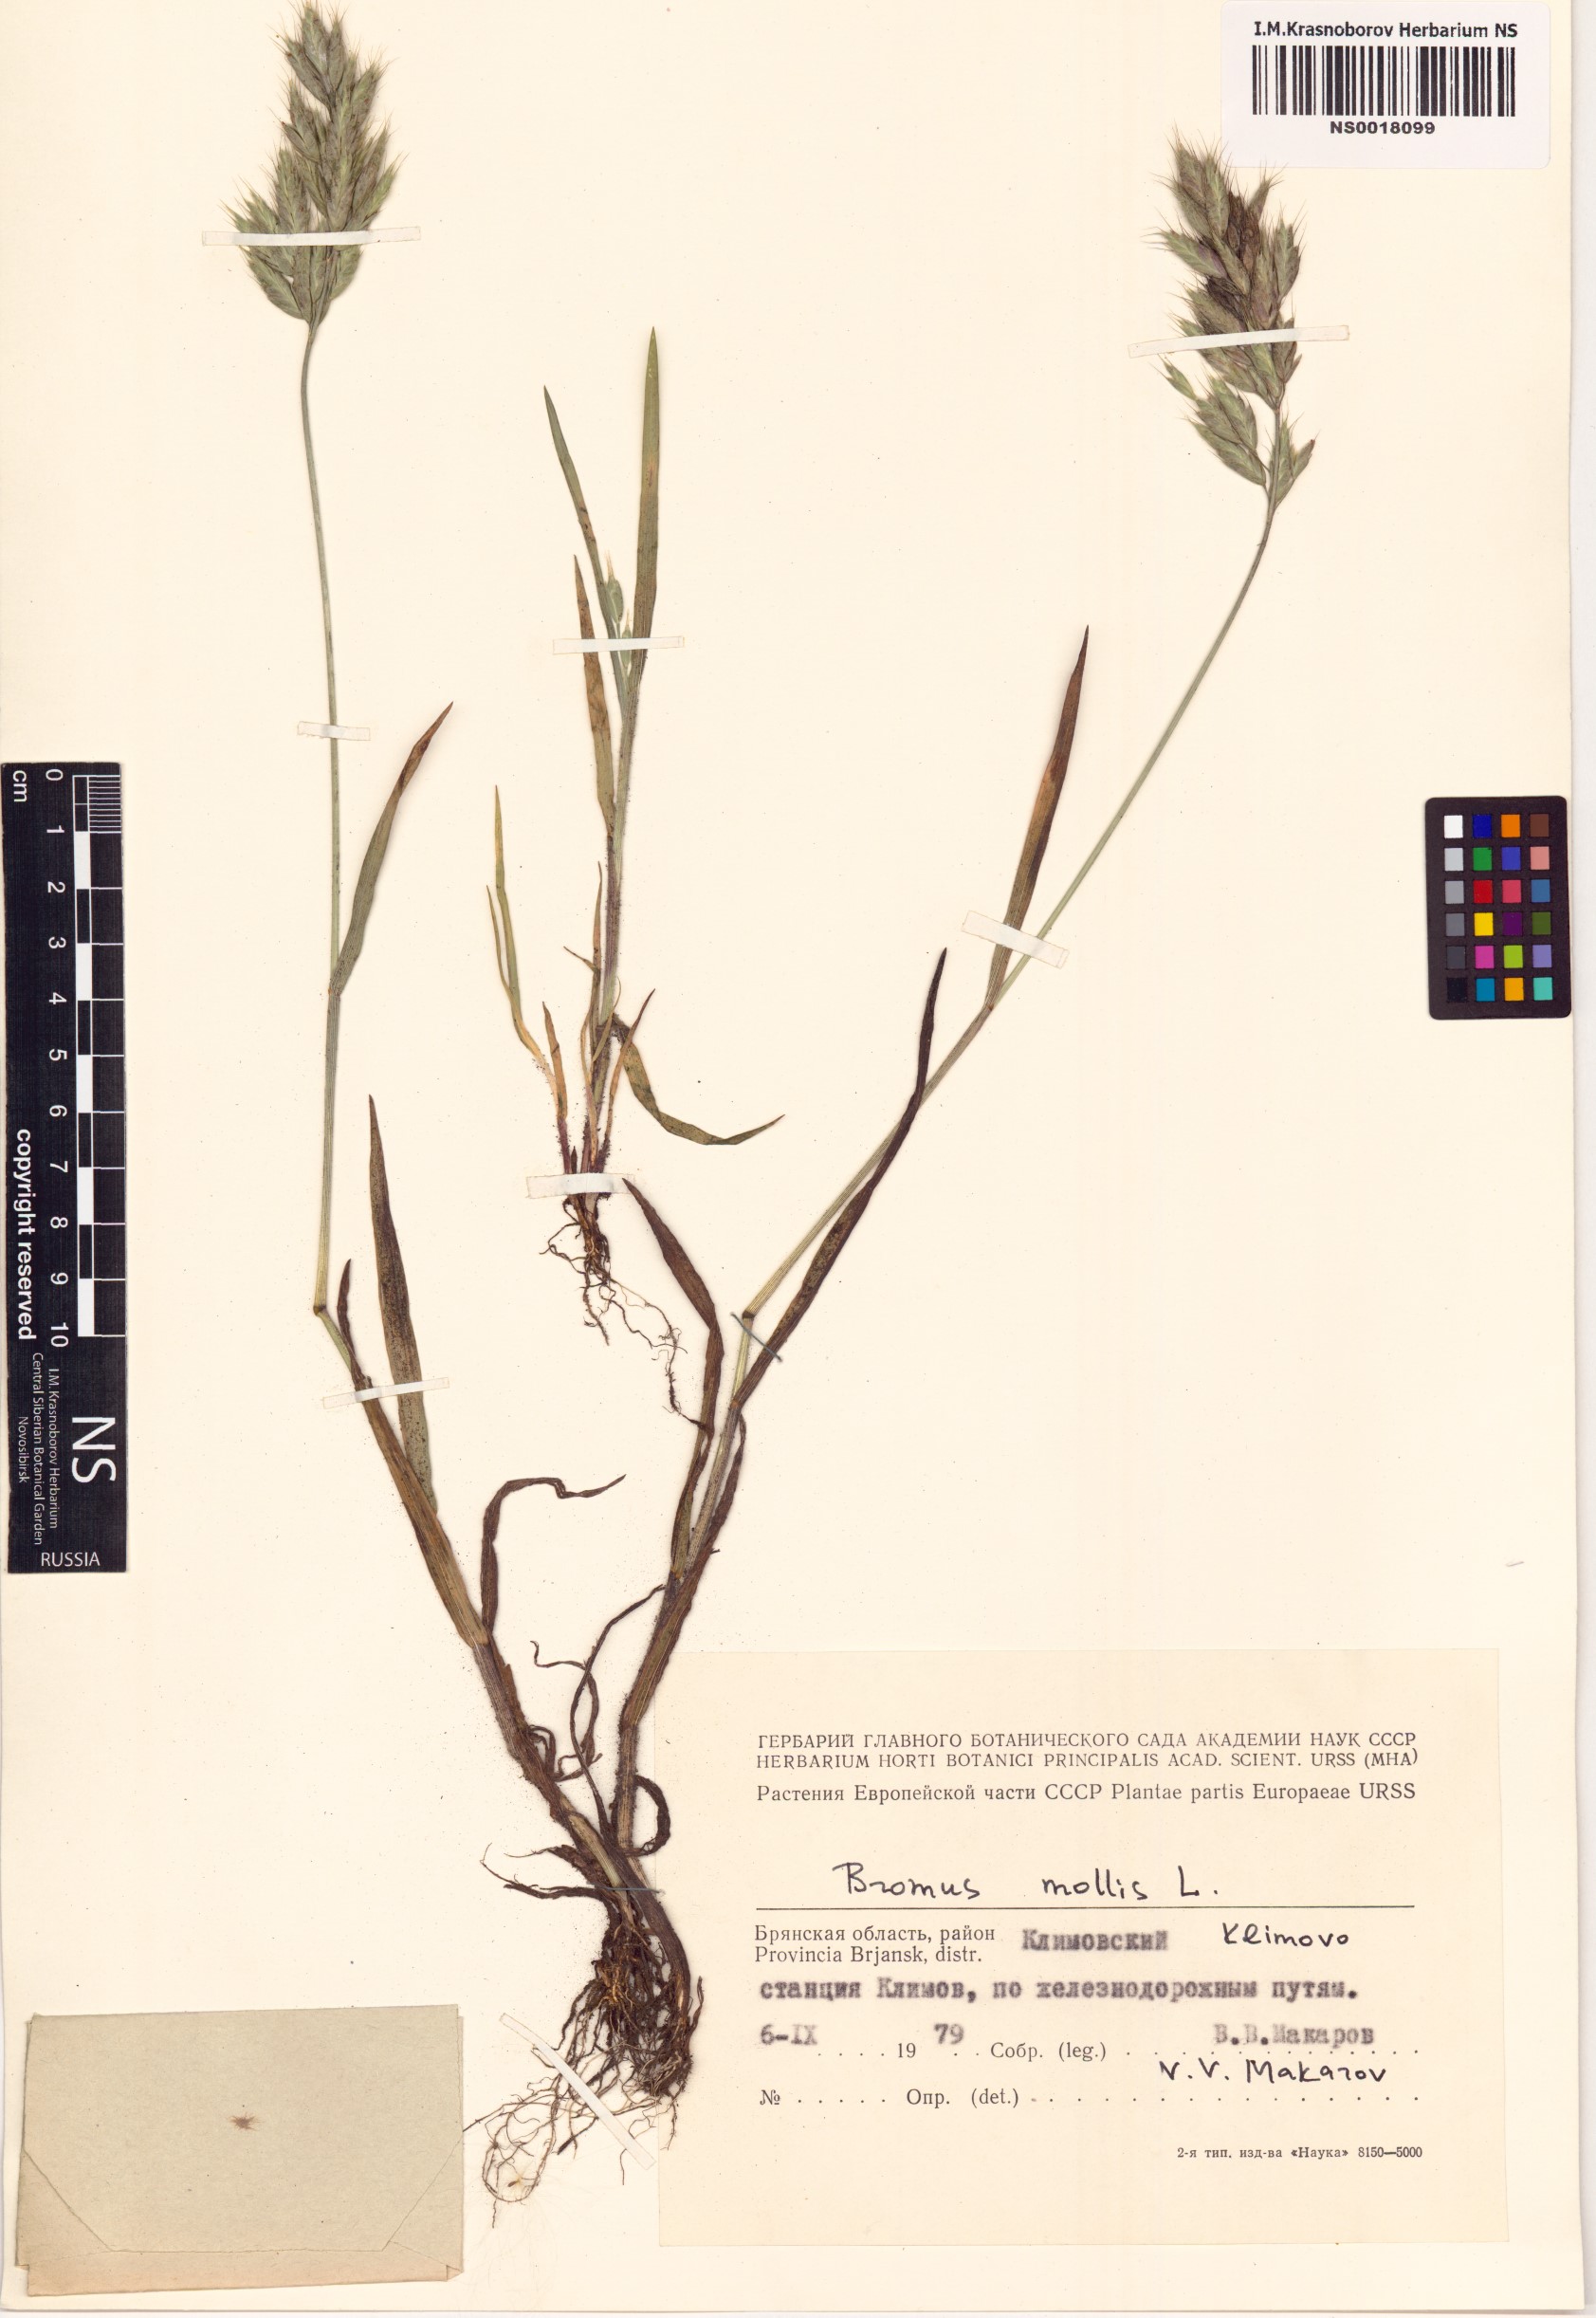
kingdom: Plantae
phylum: Tracheophyta
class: Liliopsida
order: Poales
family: Poaceae
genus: Bromus
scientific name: Bromus hordeaceus
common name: Soft brome
